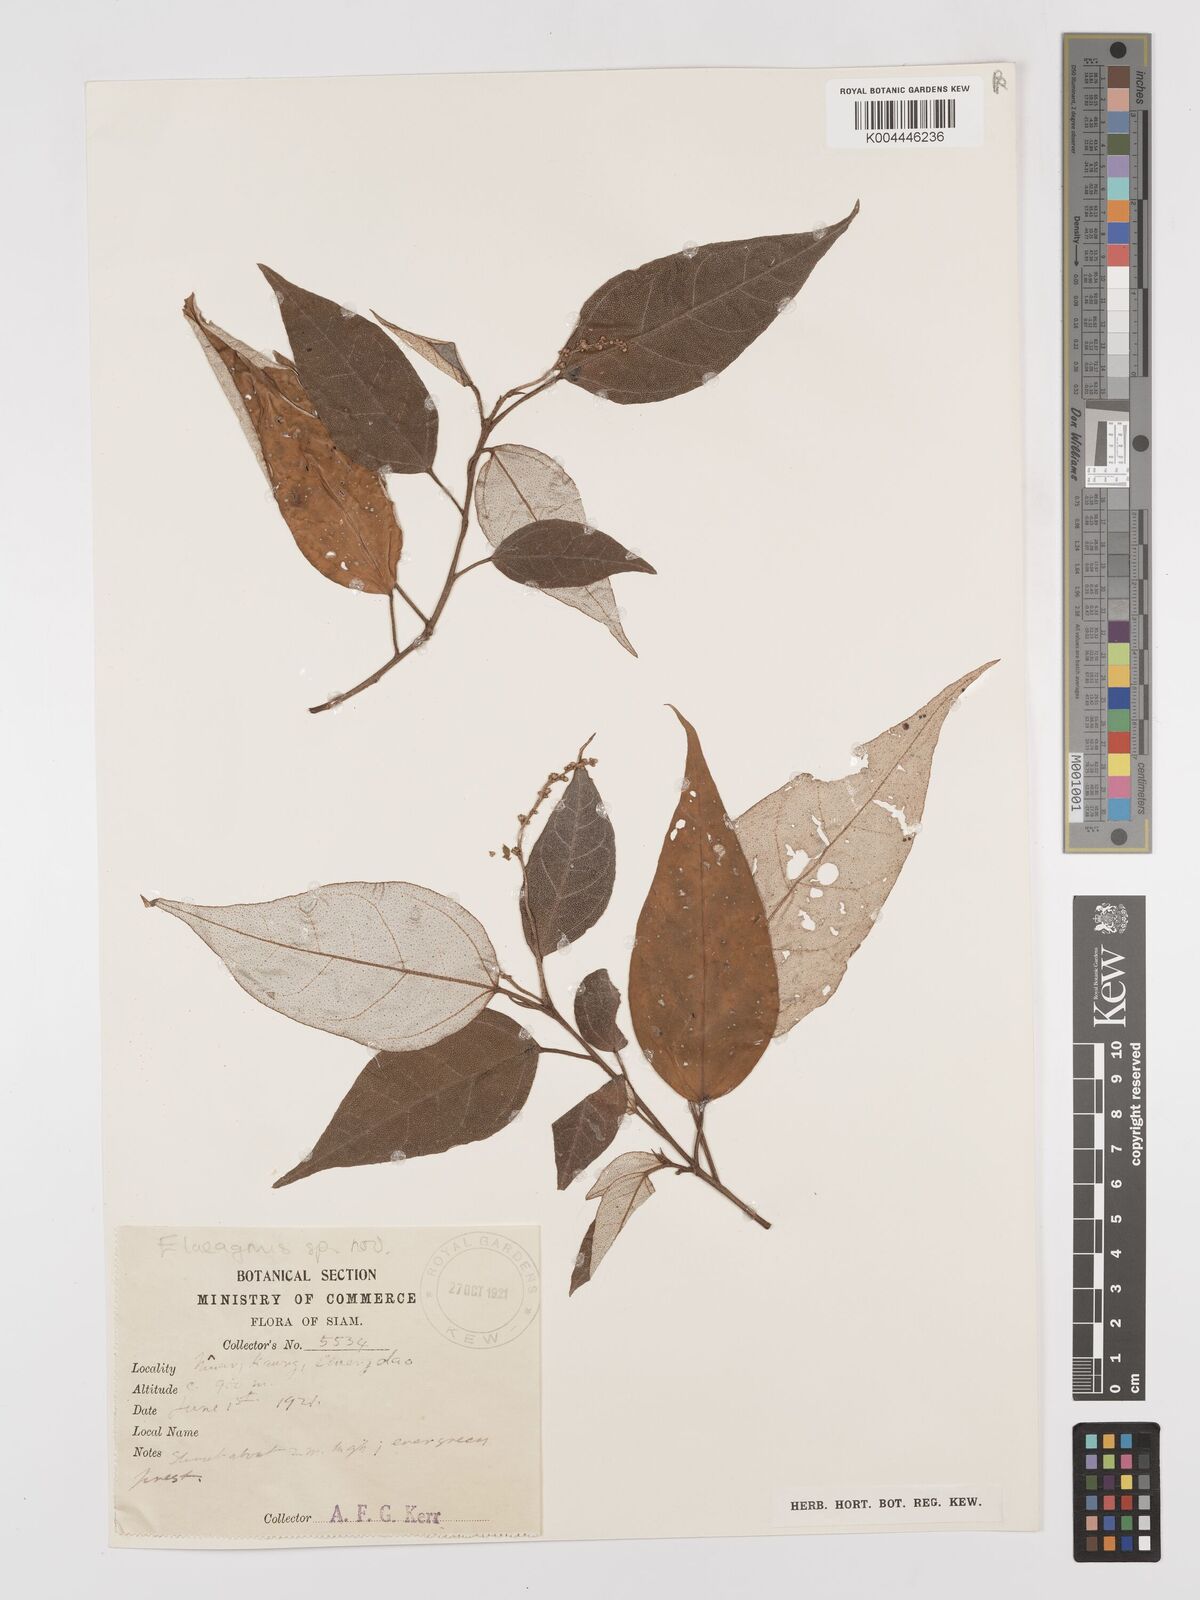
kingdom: Plantae
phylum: Tracheophyta
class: Magnoliopsida
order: Malpighiales
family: Euphorbiaceae
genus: Croton
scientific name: Croton kongensis
